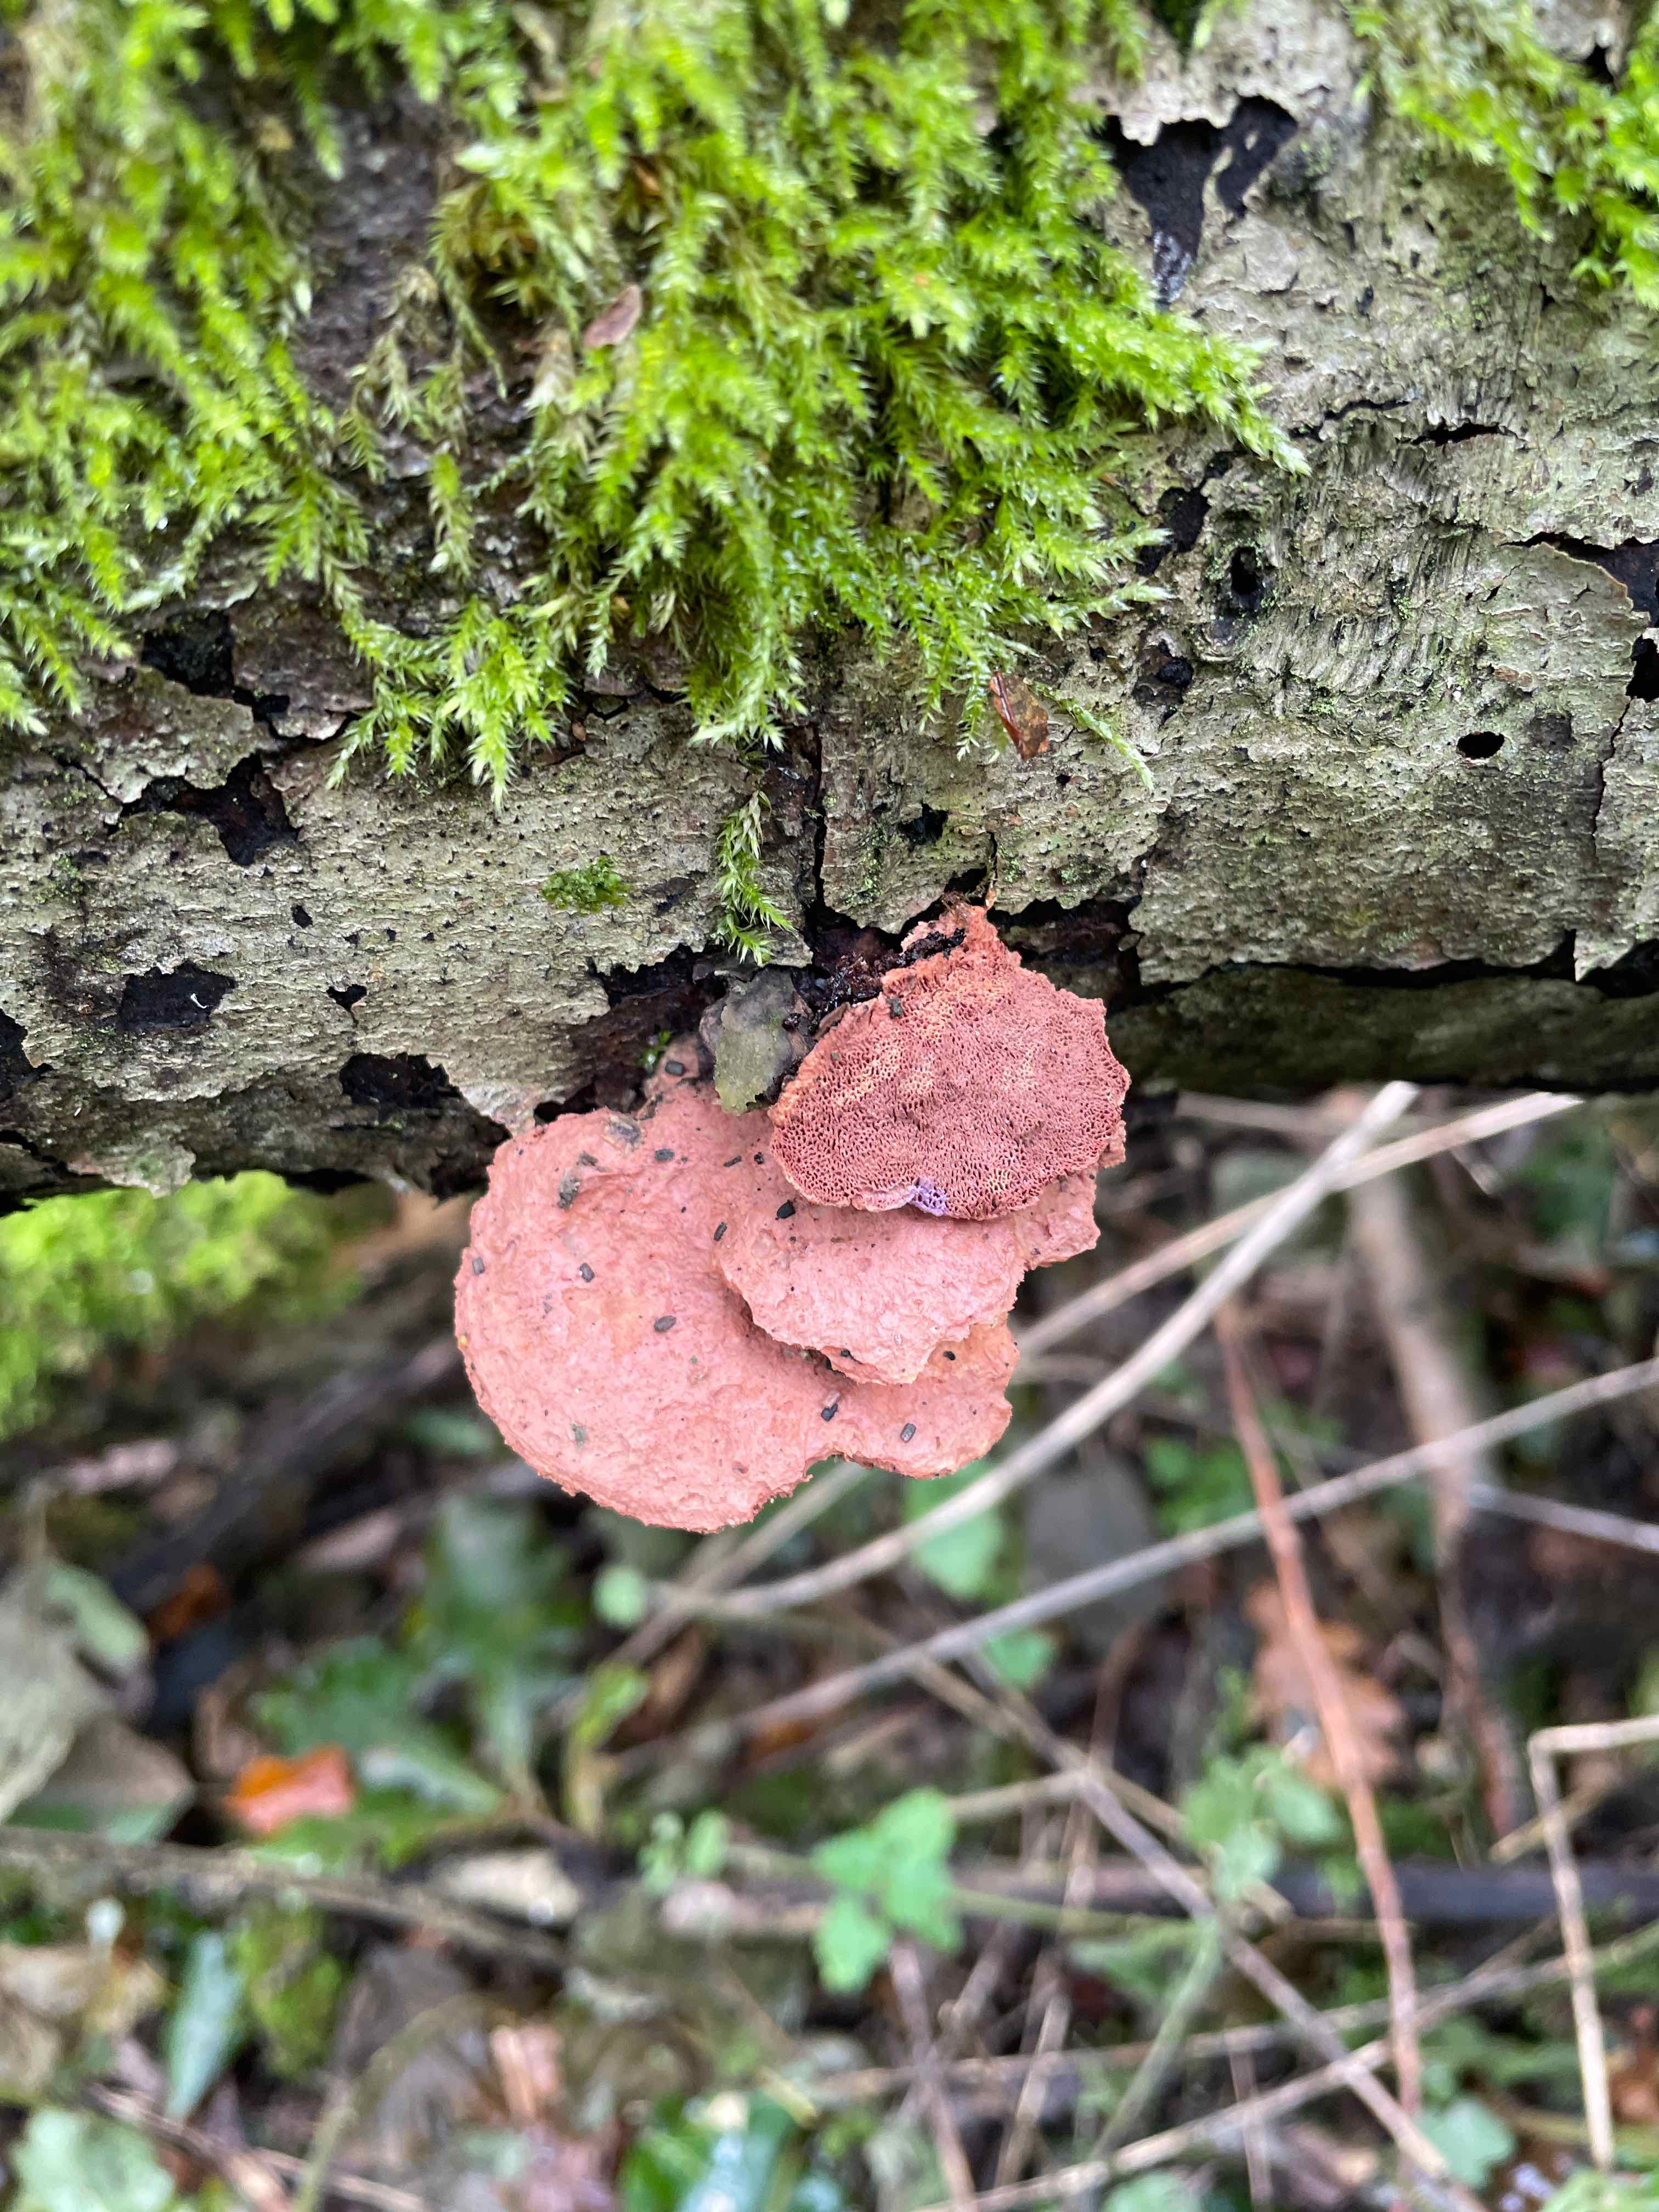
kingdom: Fungi
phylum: Basidiomycota
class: Agaricomycetes
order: Polyporales
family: Phanerochaetaceae
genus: Hapalopilus
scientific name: Hapalopilus rutilans
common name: rødlig okkerporesvamp
